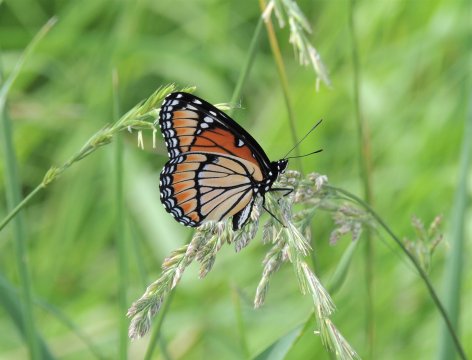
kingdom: Animalia
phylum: Arthropoda
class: Insecta
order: Lepidoptera
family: Nymphalidae
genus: Limenitis
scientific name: Limenitis archippus
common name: Viceroy
